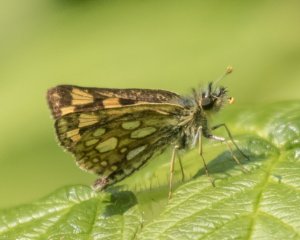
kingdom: Animalia
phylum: Arthropoda
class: Insecta
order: Lepidoptera
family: Hesperiidae
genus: Carterocephalus
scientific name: Carterocephalus palaemon
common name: Chequered Skipper
